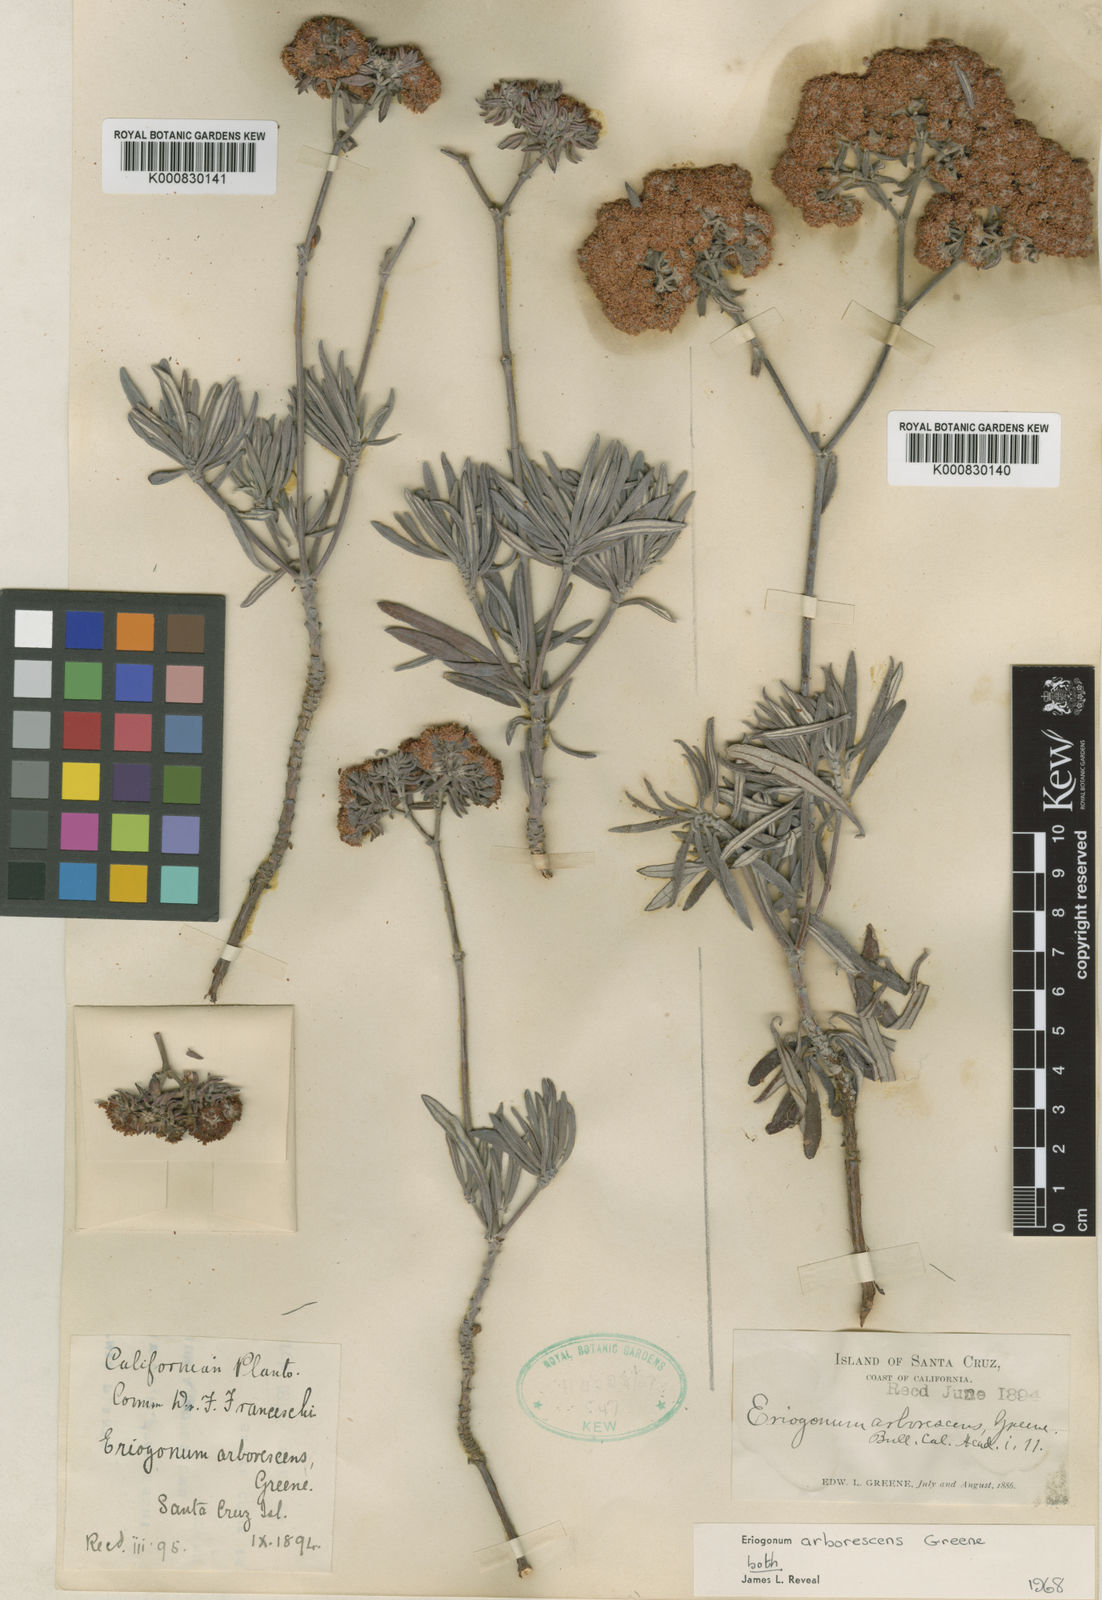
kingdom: Plantae
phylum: Tracheophyta
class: Magnoliopsida
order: Caryophyllales
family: Polygonaceae
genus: Eriogonum
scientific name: Eriogonum arborescens
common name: Island buckwheat
